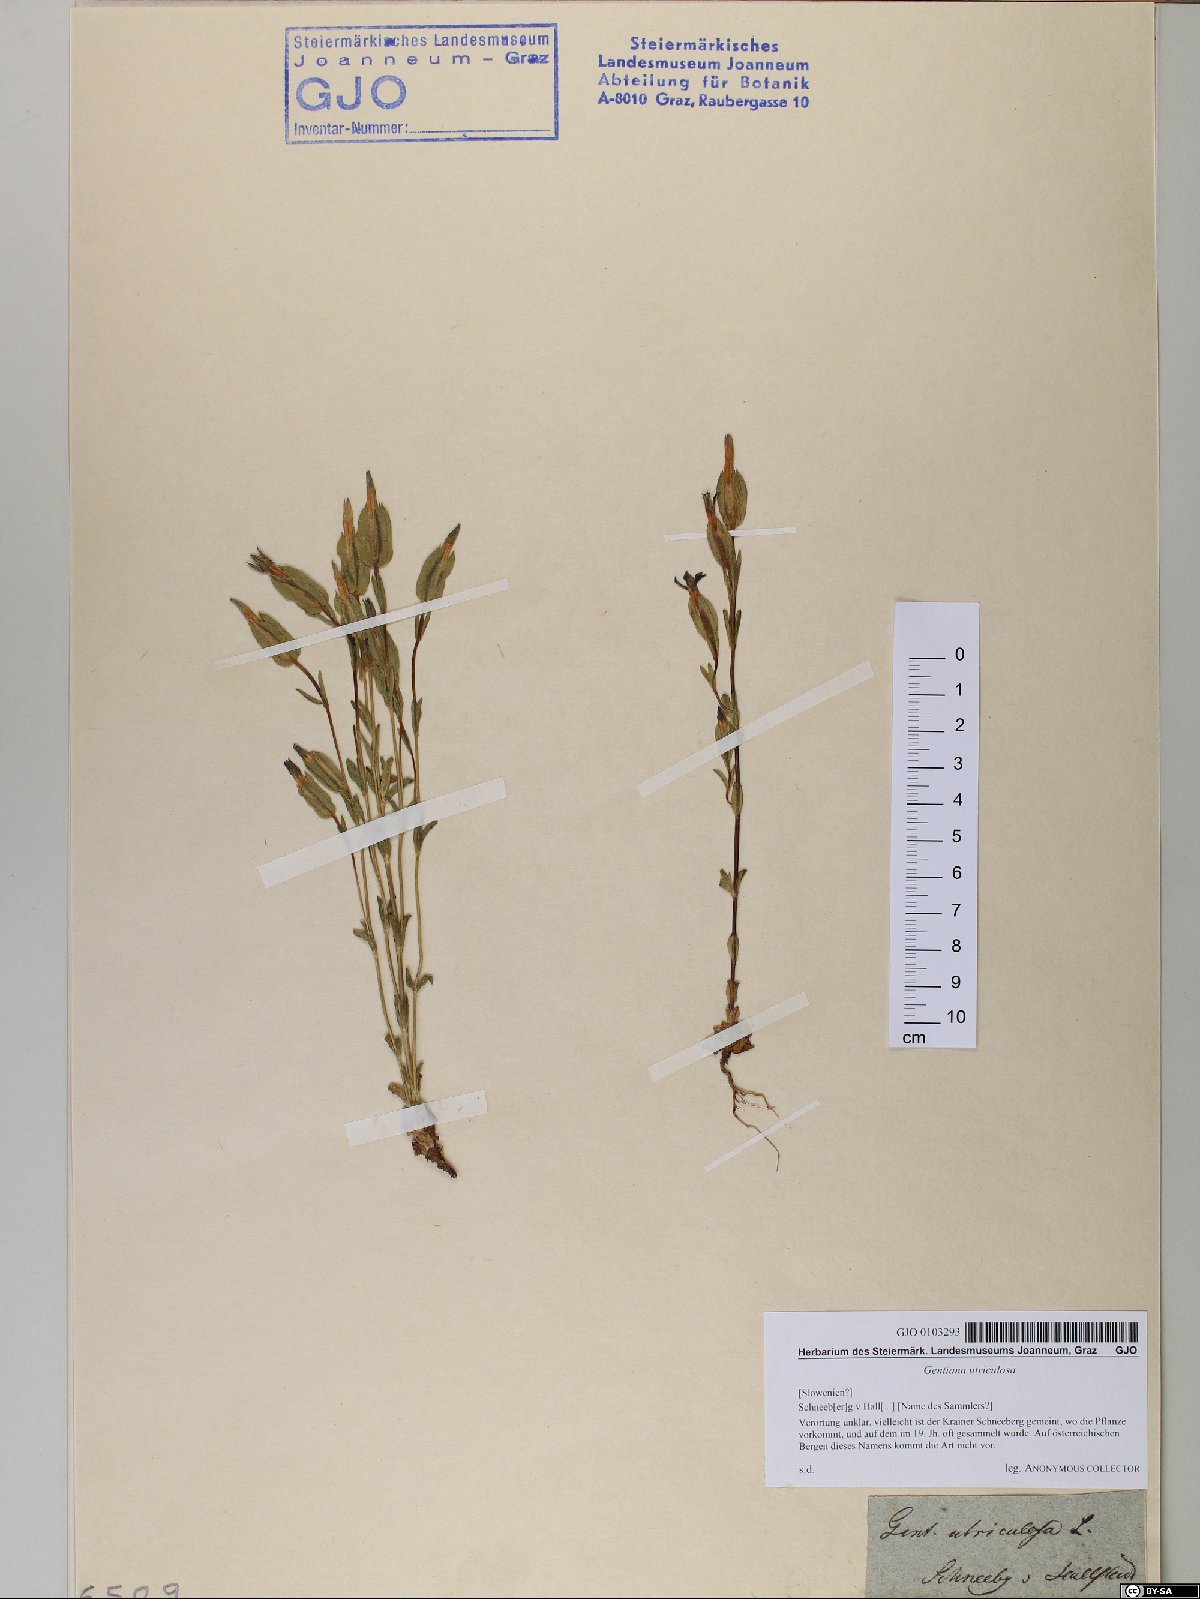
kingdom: Plantae
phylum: Tracheophyta
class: Magnoliopsida
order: Gentianales
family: Gentianaceae
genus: Gentiana
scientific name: Gentiana utriculosa
